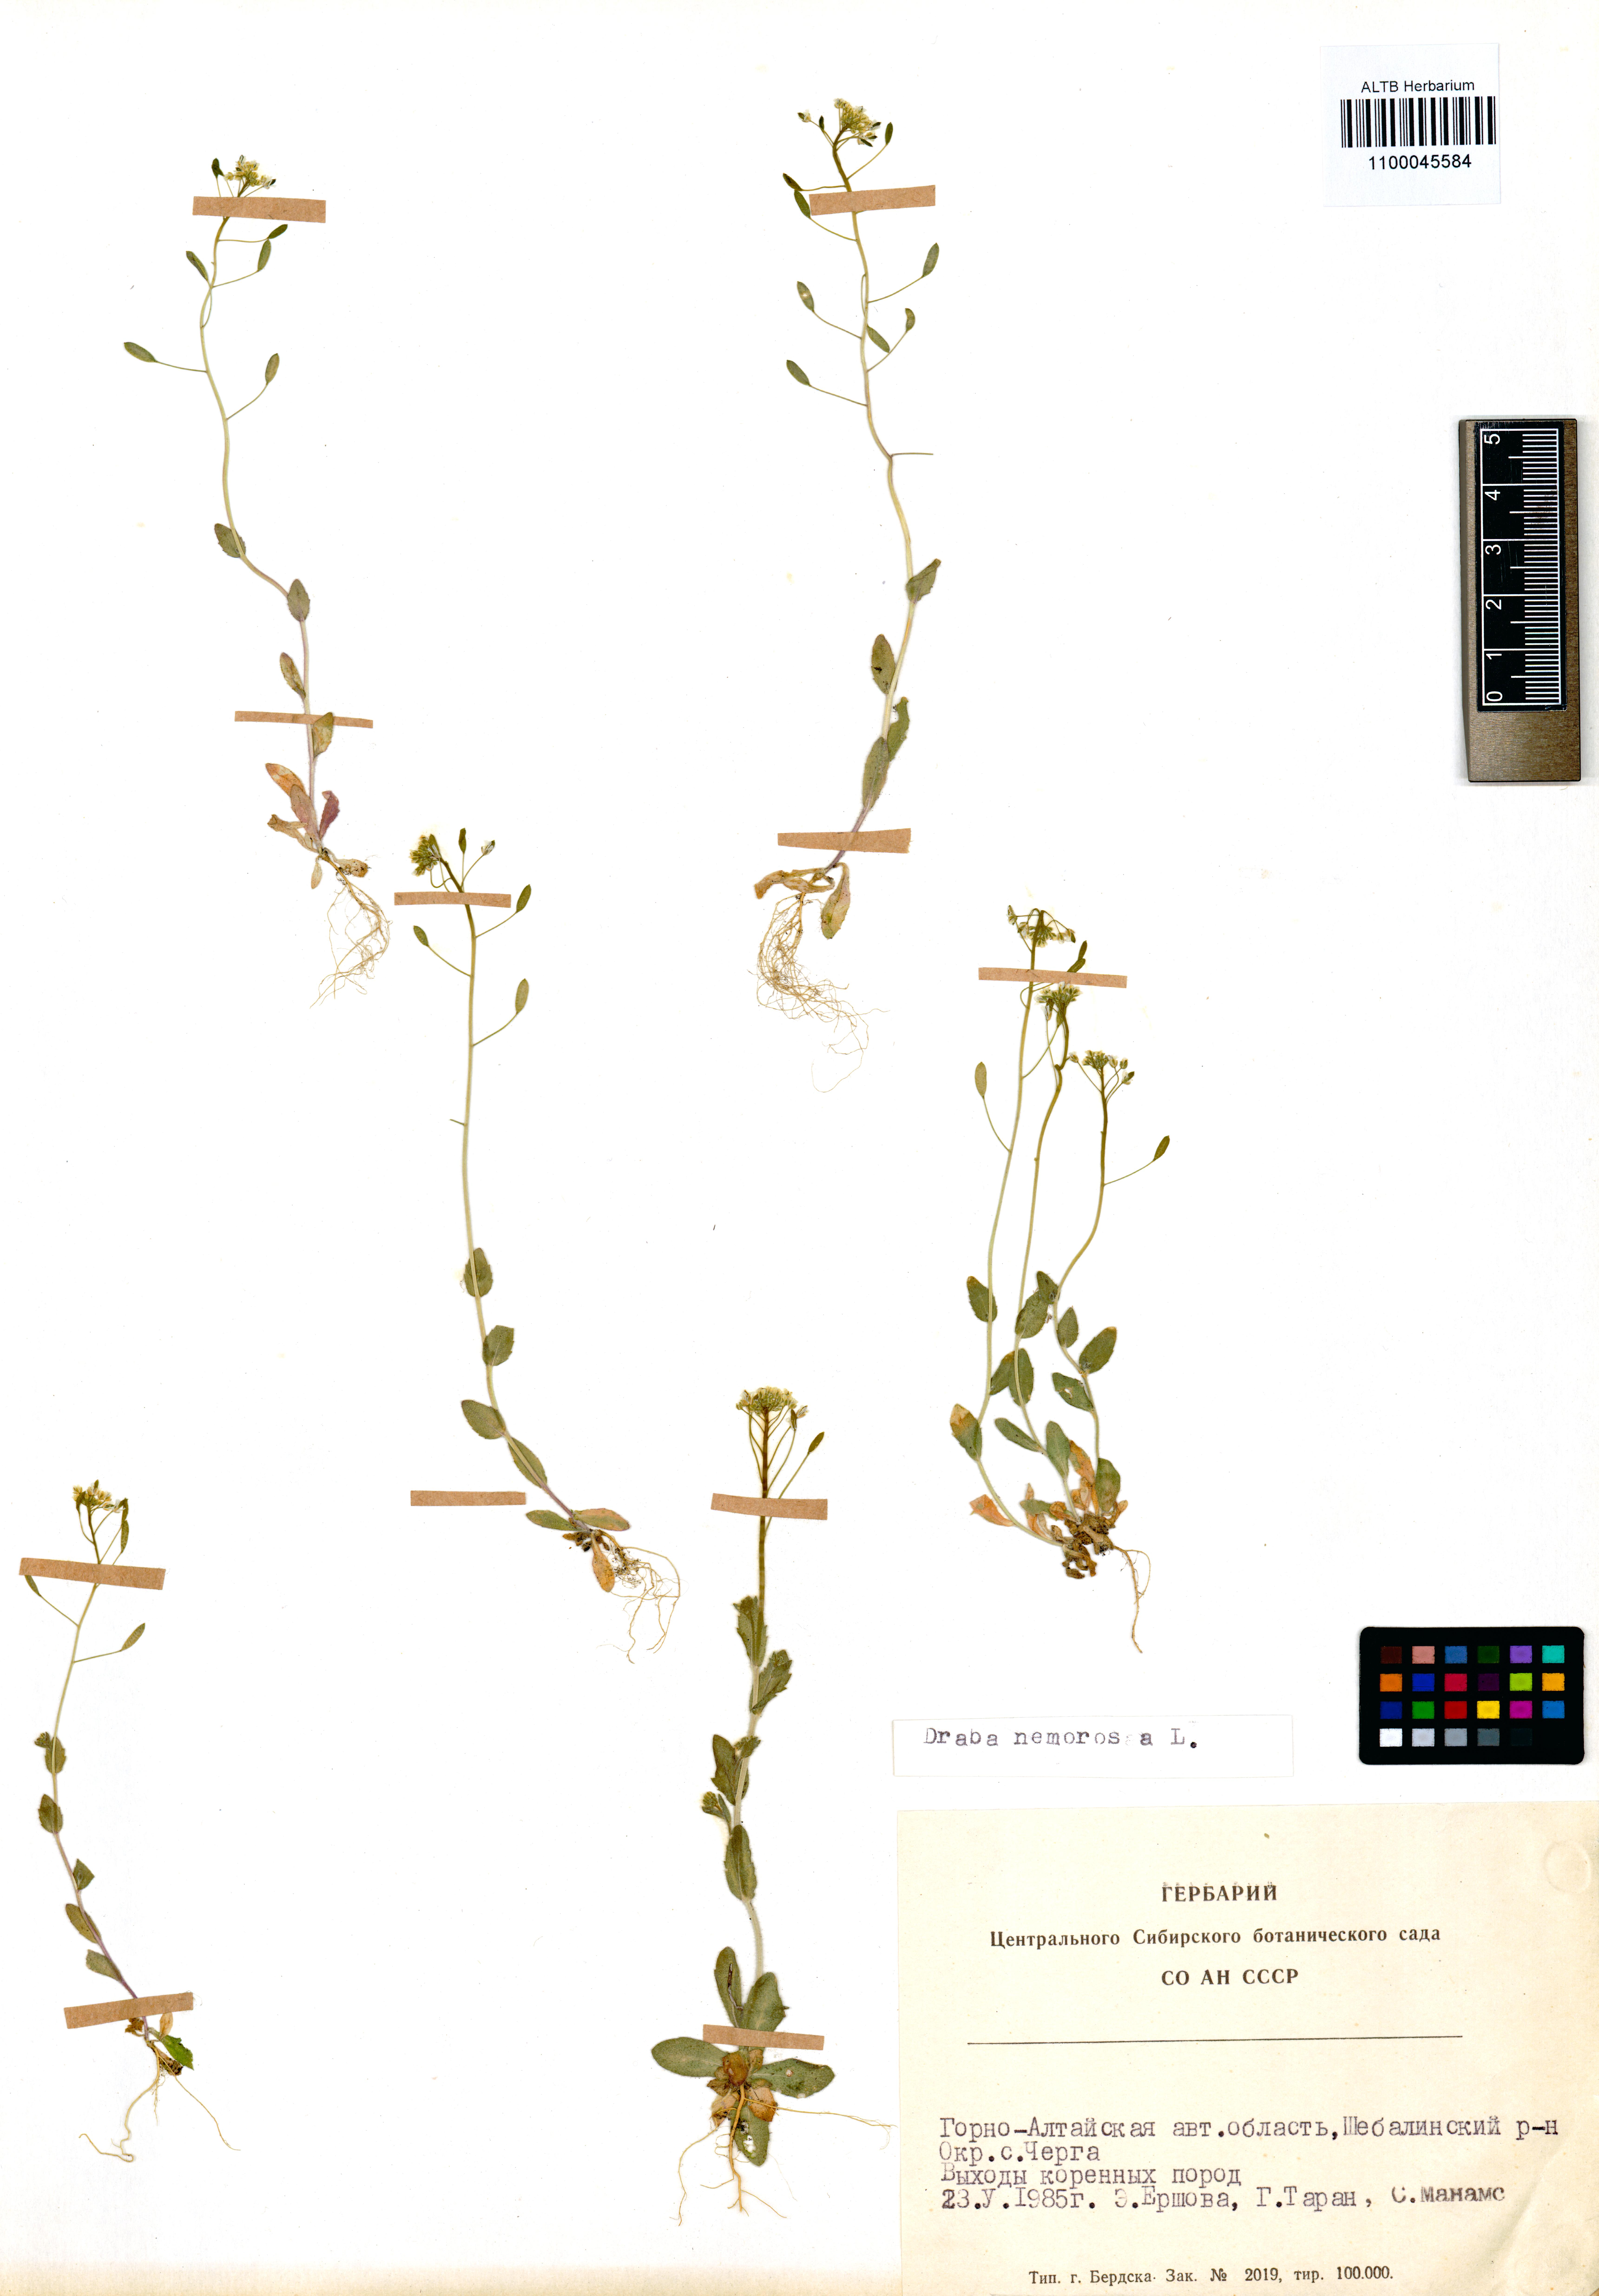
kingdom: Plantae
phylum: Tracheophyta
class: Magnoliopsida
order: Brassicales
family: Brassicaceae
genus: Draba
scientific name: Draba nemorosa
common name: Wood whitlow-grass
